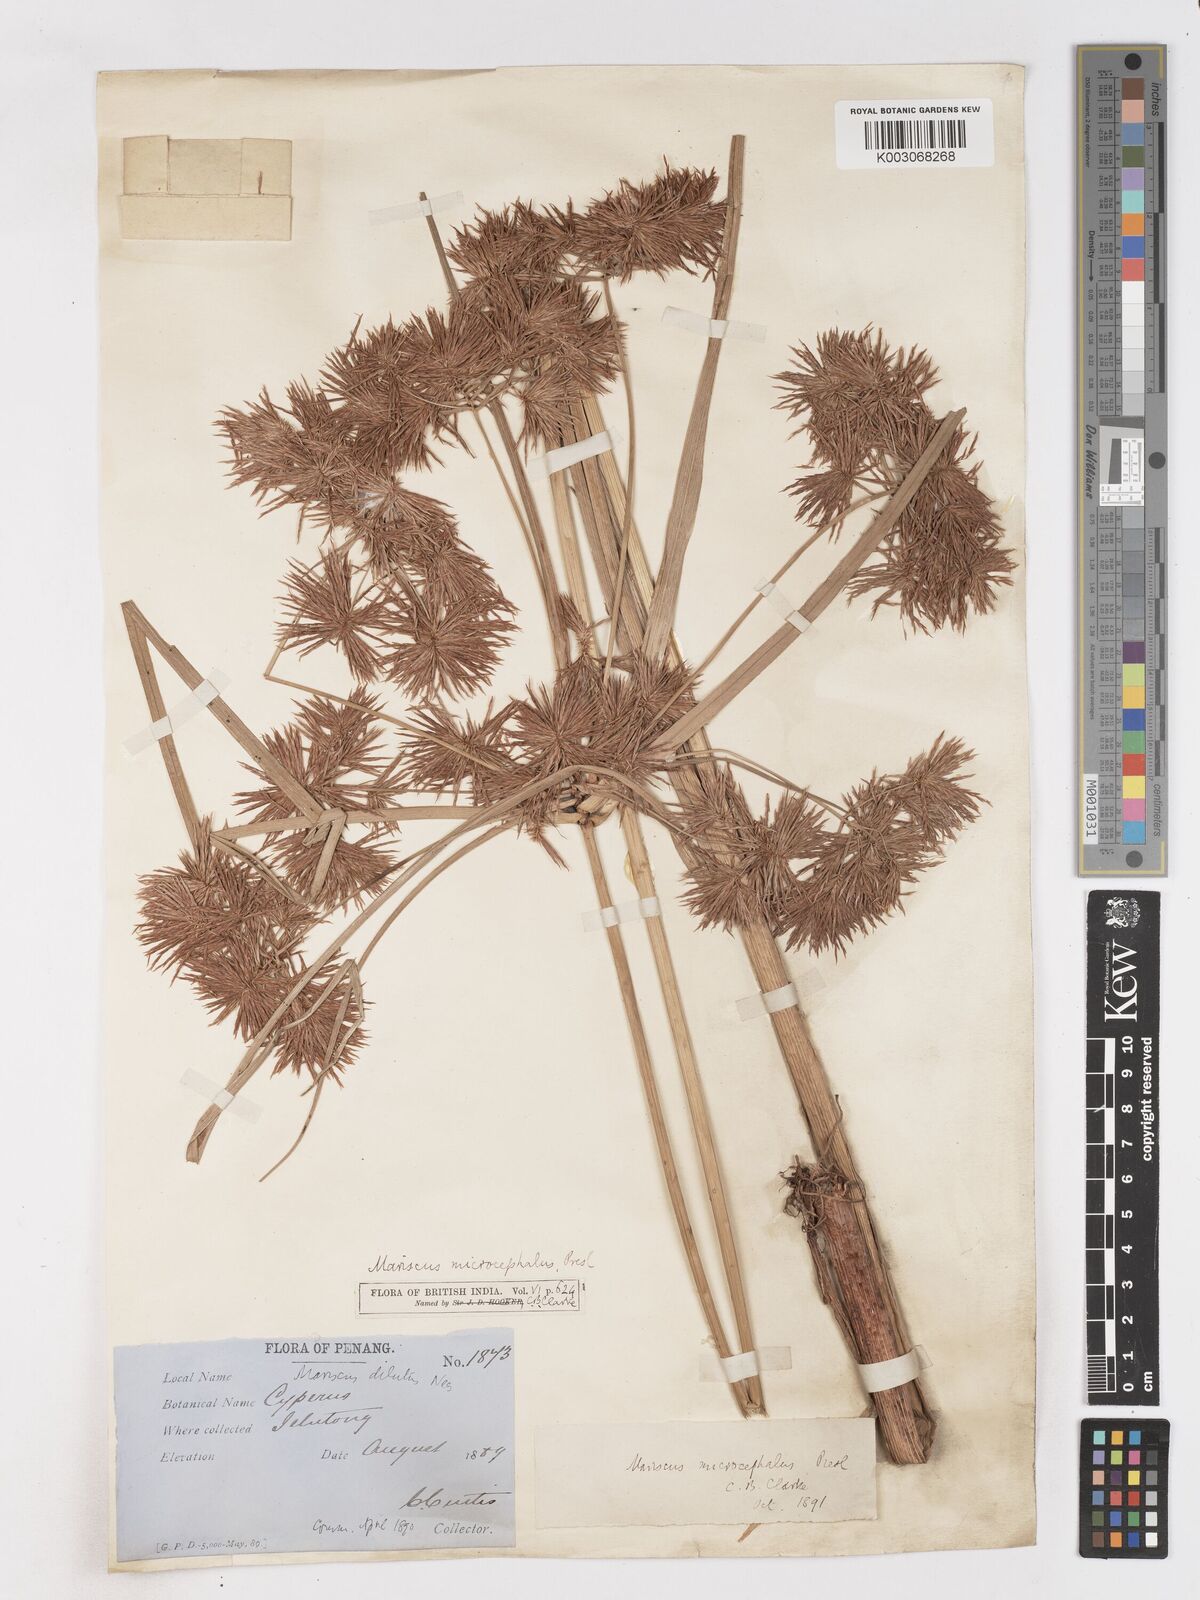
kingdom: Plantae
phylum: Tracheophyta
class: Liliopsida
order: Poales
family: Cyperaceae
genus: Cyperus
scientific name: Cyperus compactus
